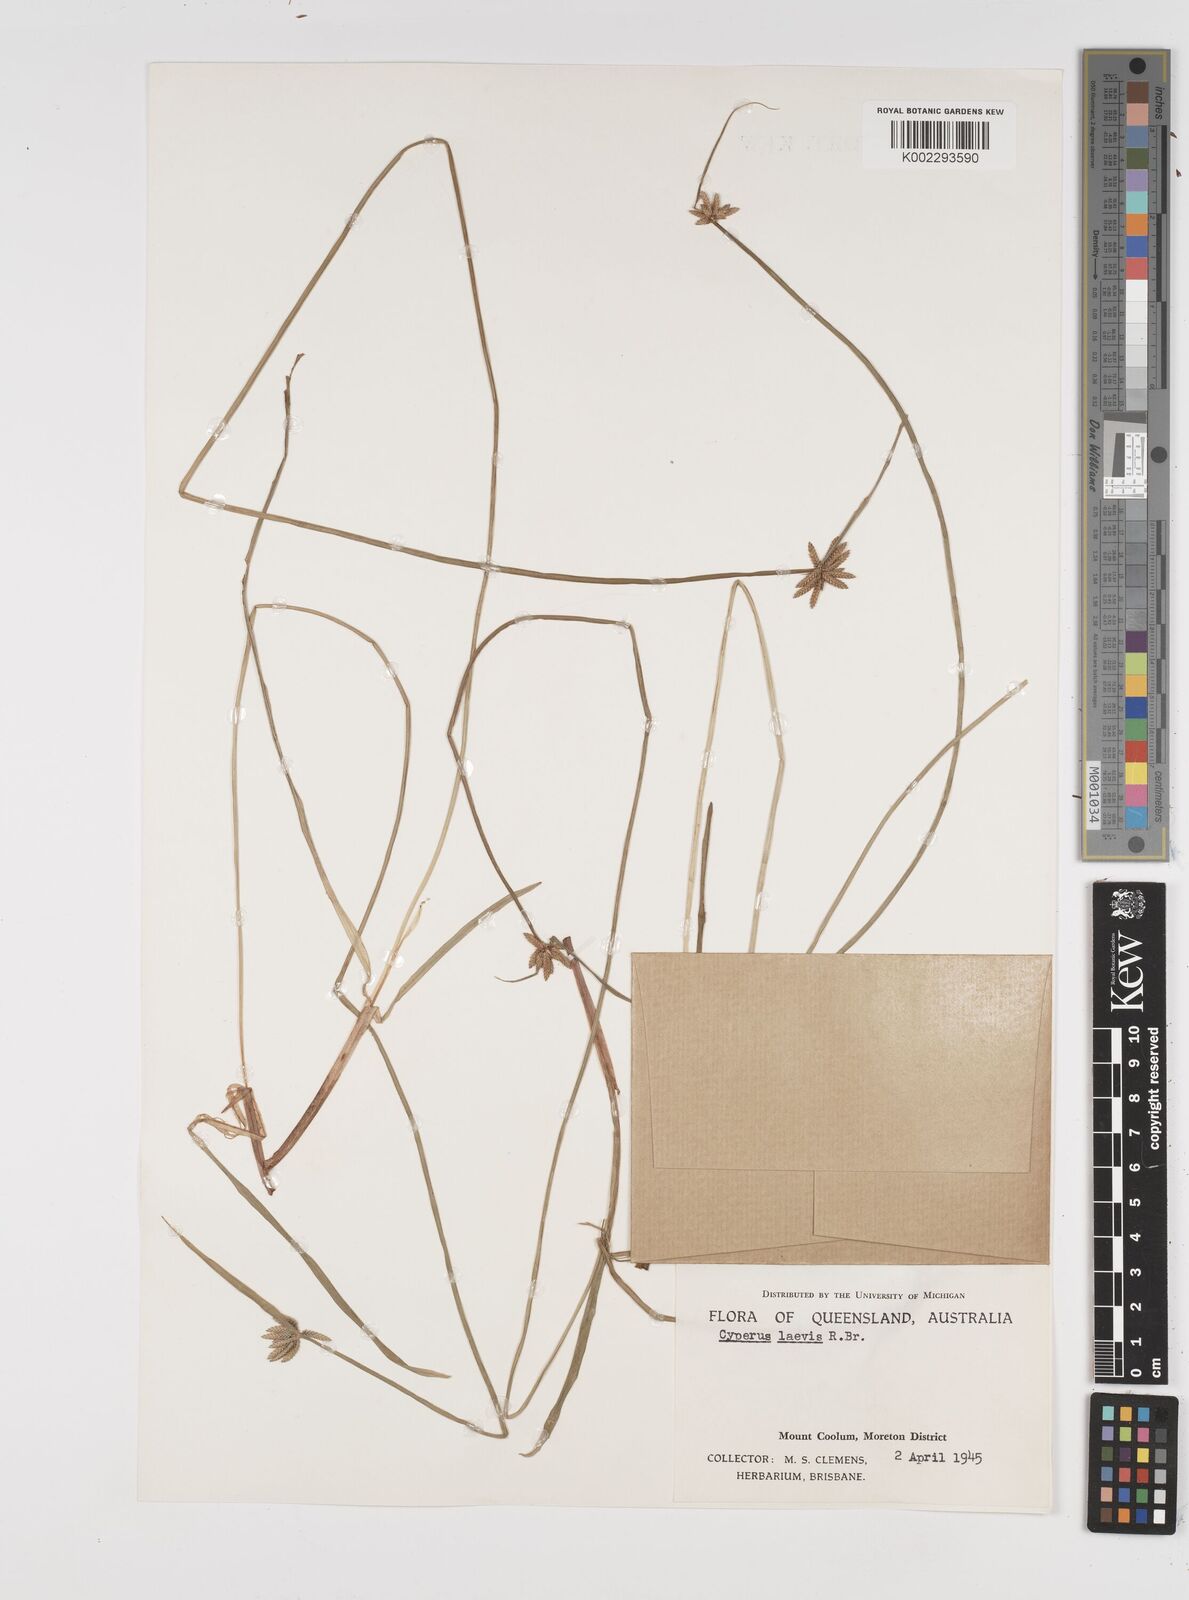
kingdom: Plantae
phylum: Tracheophyta
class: Liliopsida
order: Poales
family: Cyperaceae
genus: Cyperus
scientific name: Cyperus laevis
